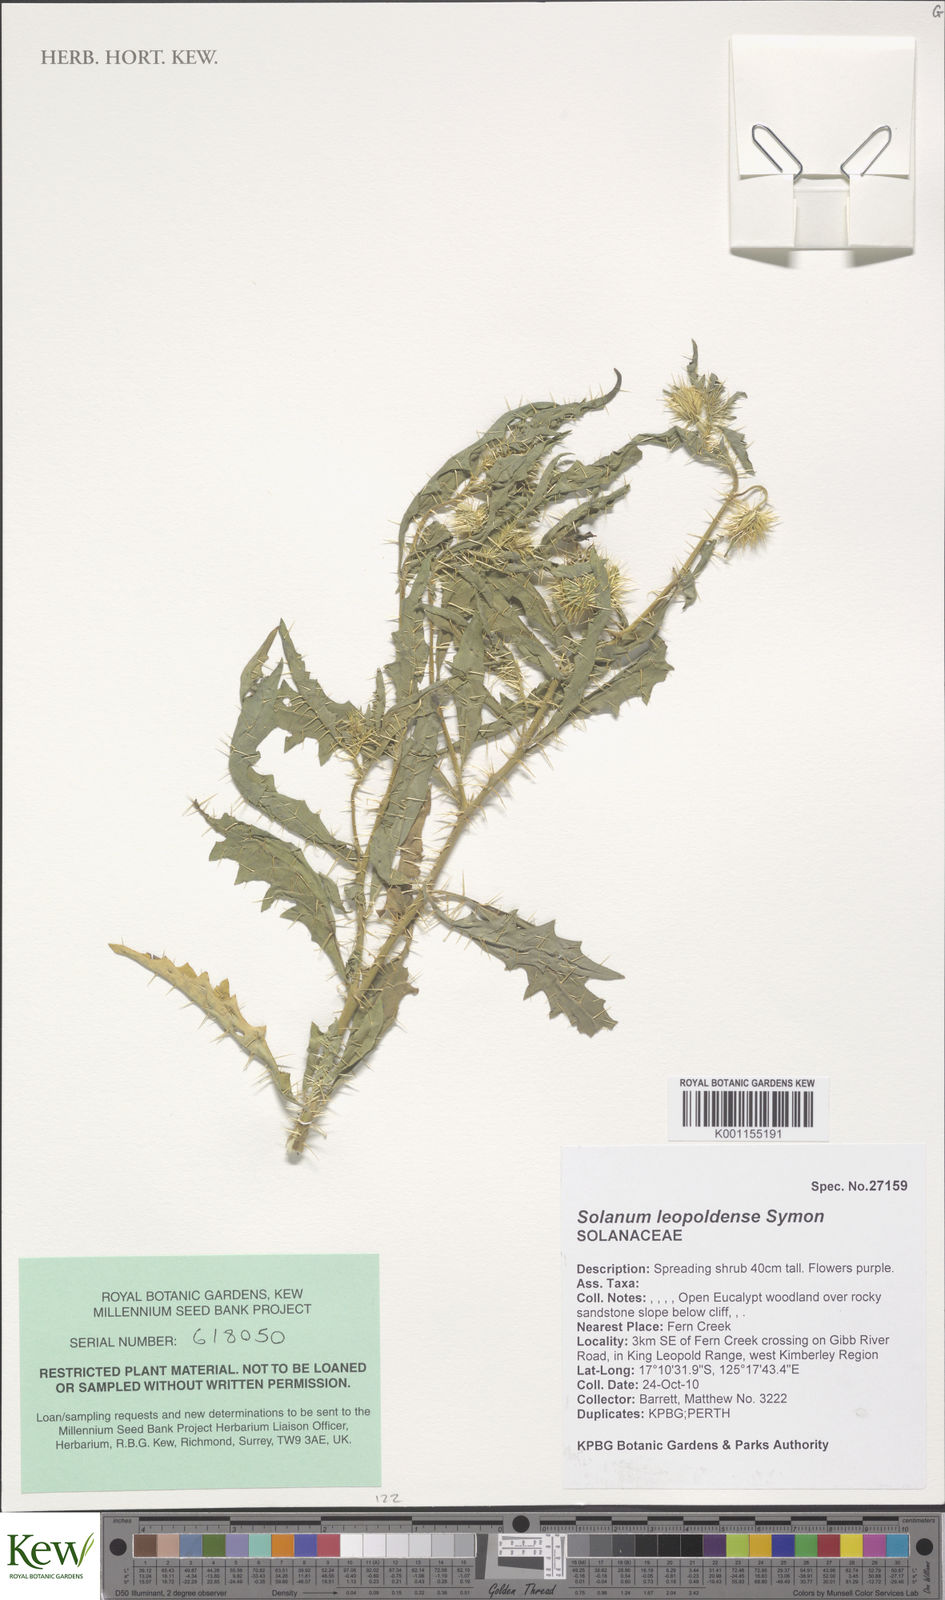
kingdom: Plantae
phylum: Tracheophyta
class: Magnoliopsida
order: Solanales
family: Solanaceae
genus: Solanum
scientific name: Solanum asymmetriphyllum
